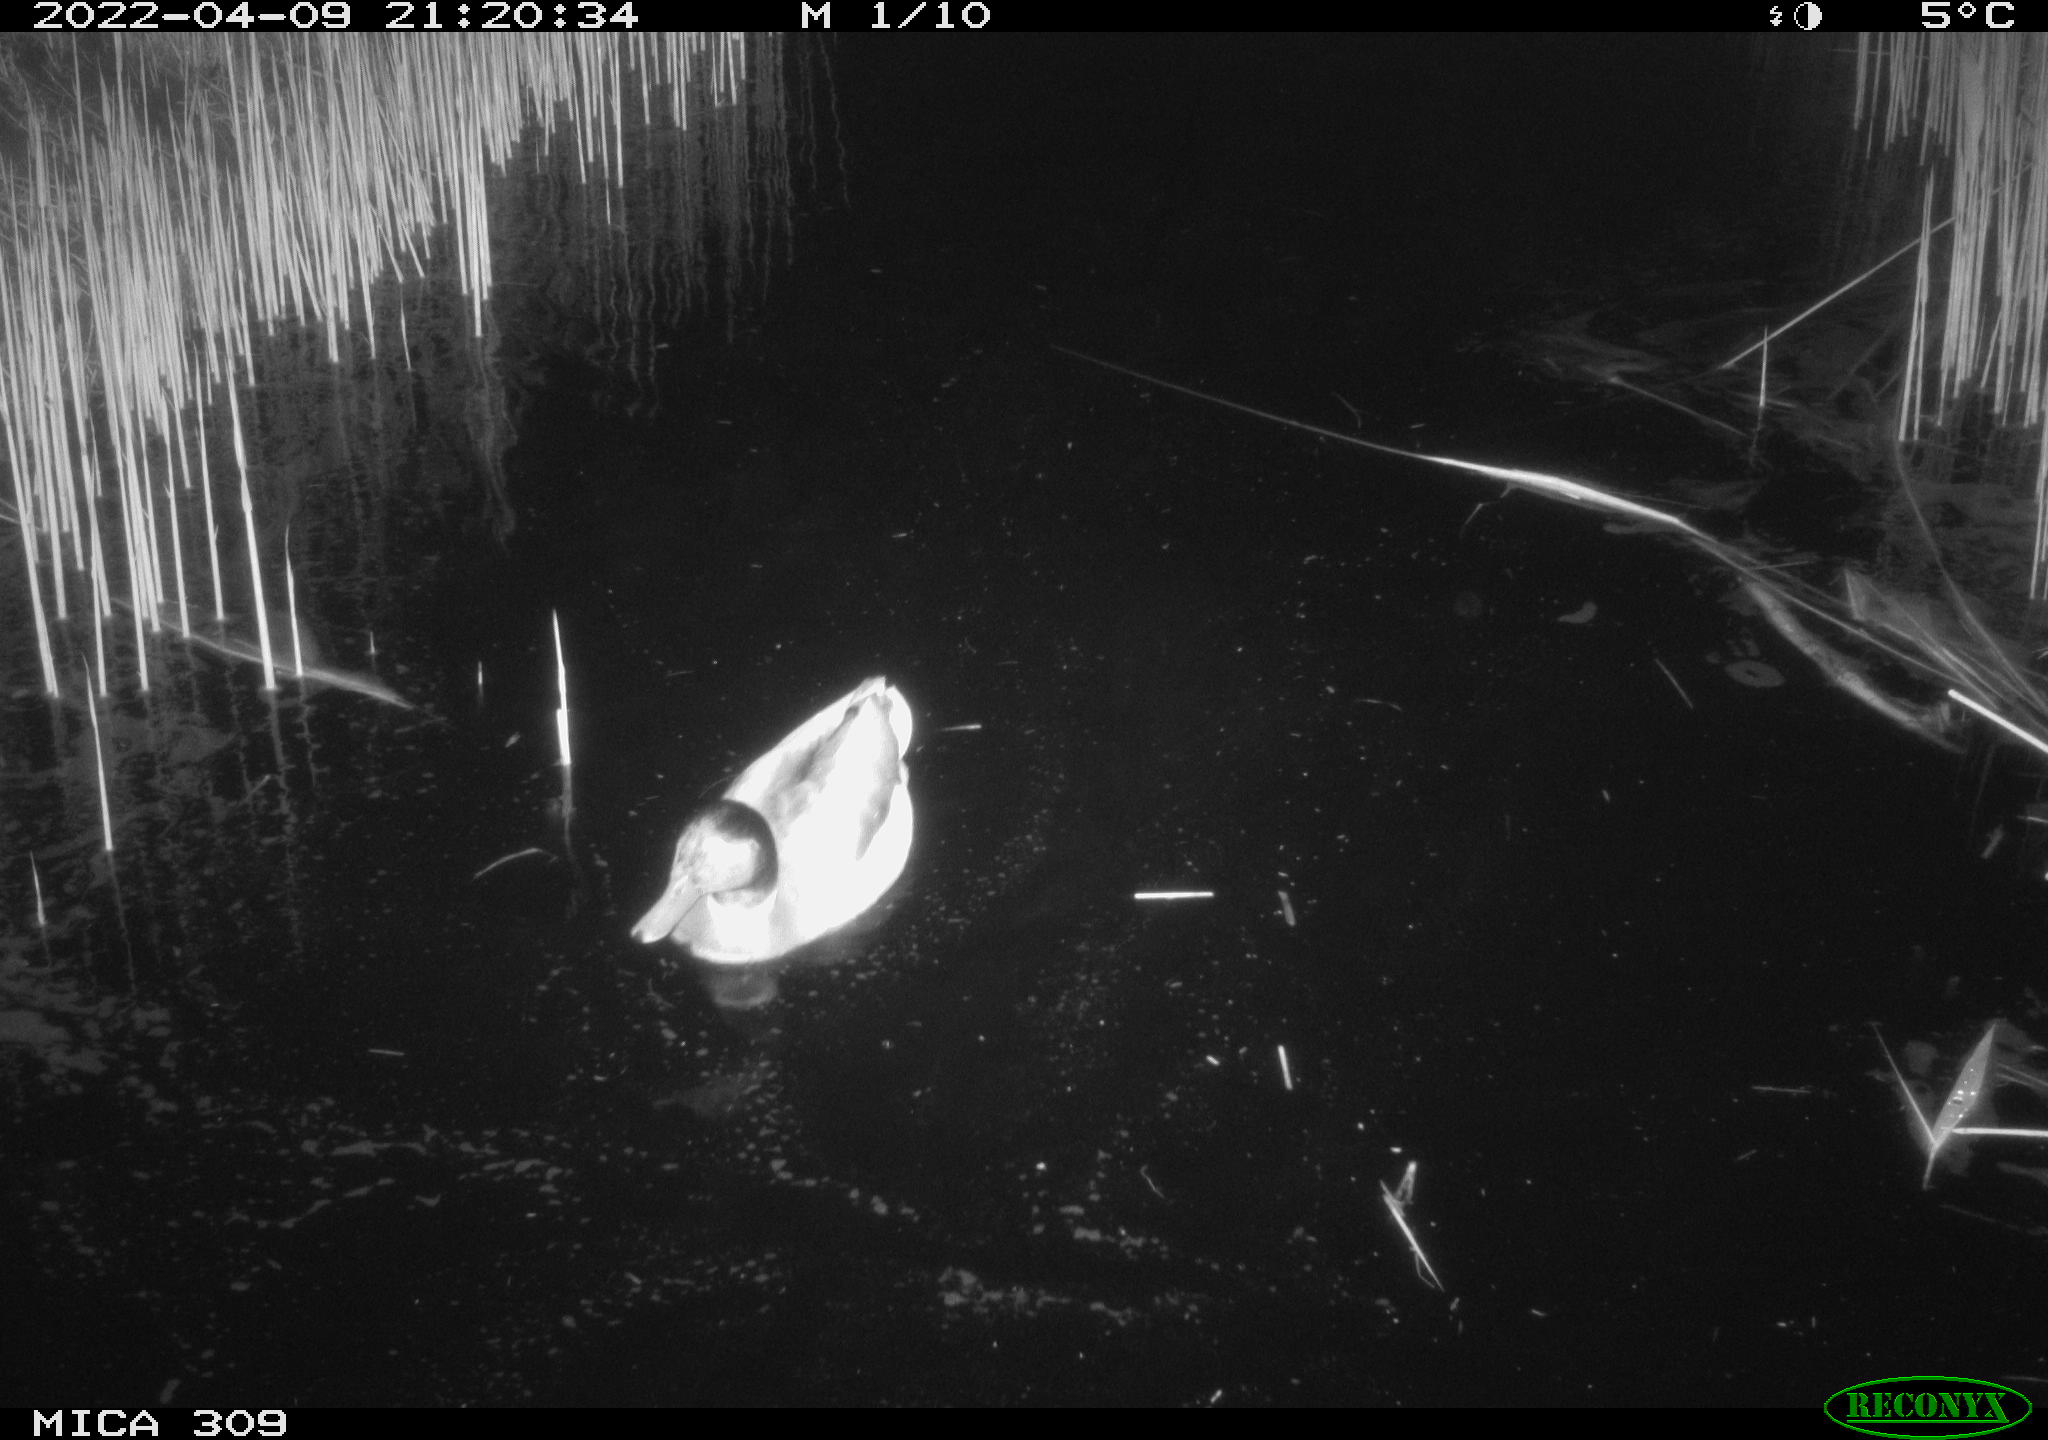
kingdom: Animalia
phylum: Chordata
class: Aves
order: Anseriformes
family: Anatidae
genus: Anas
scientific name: Anas platyrhynchos
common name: Mallard
